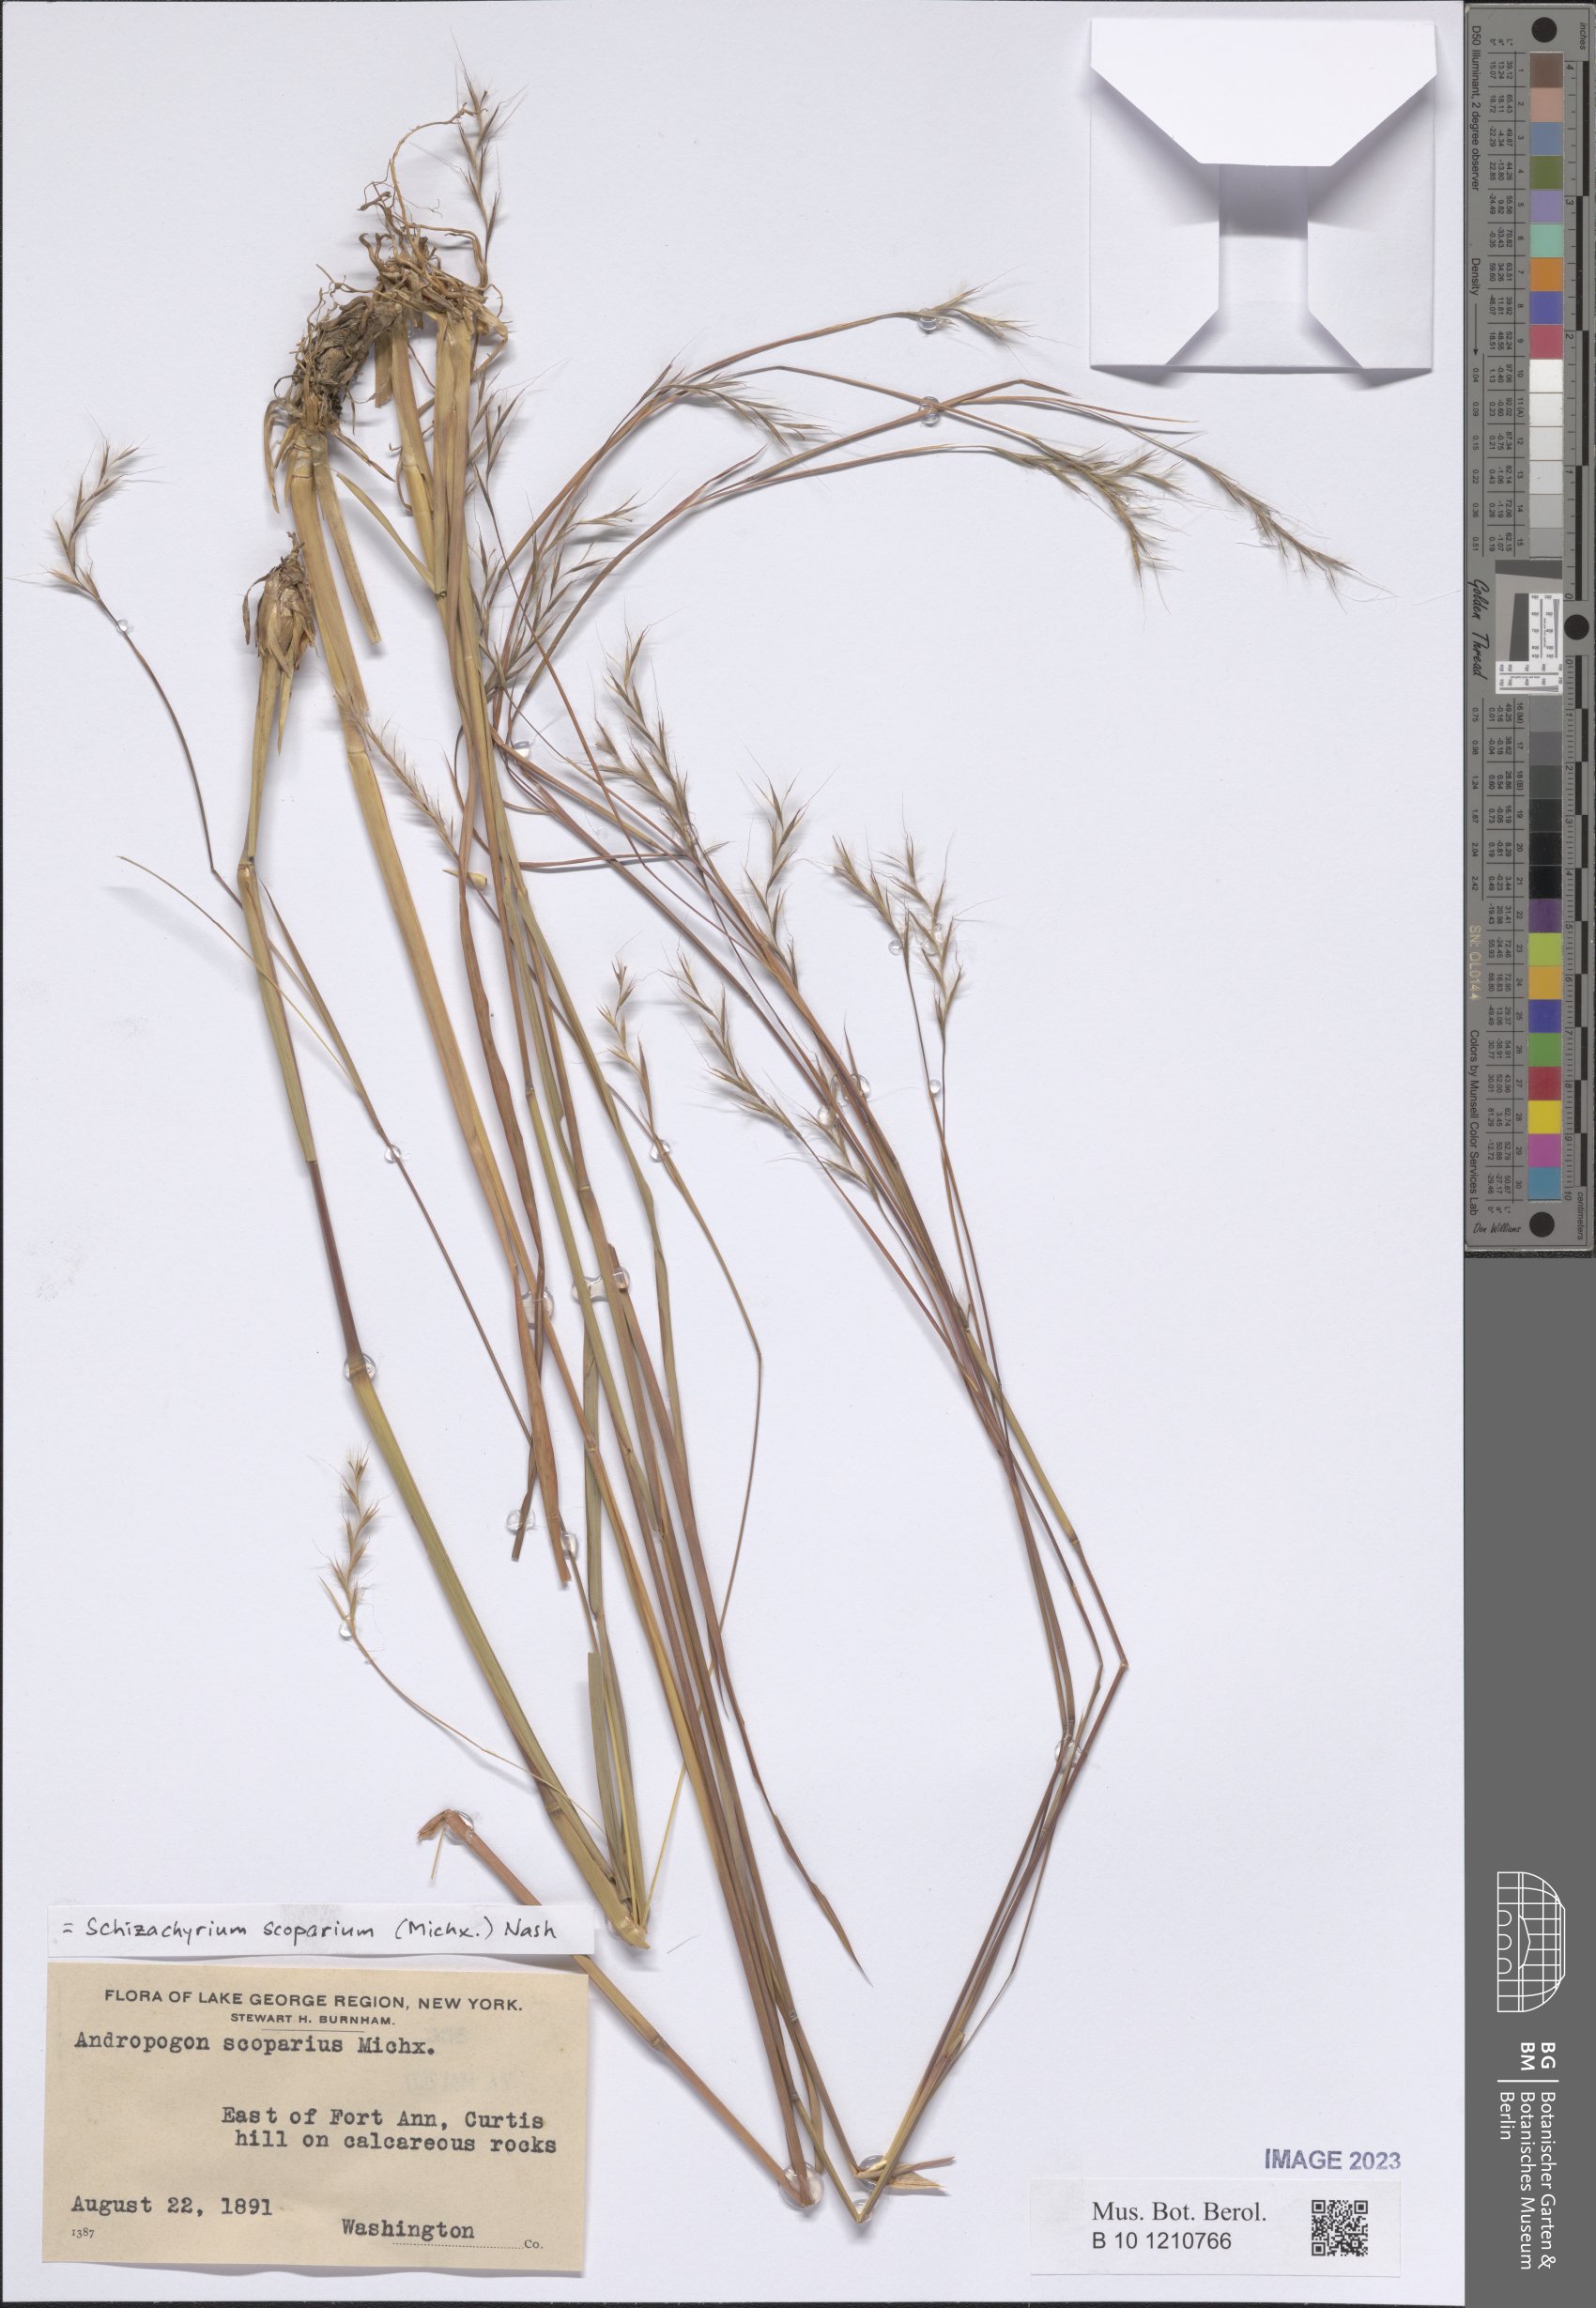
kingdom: Plantae
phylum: Tracheophyta
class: Liliopsida
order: Poales
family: Poaceae
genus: Schizachyrium
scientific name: Schizachyrium scoparium
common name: Little bluestem
